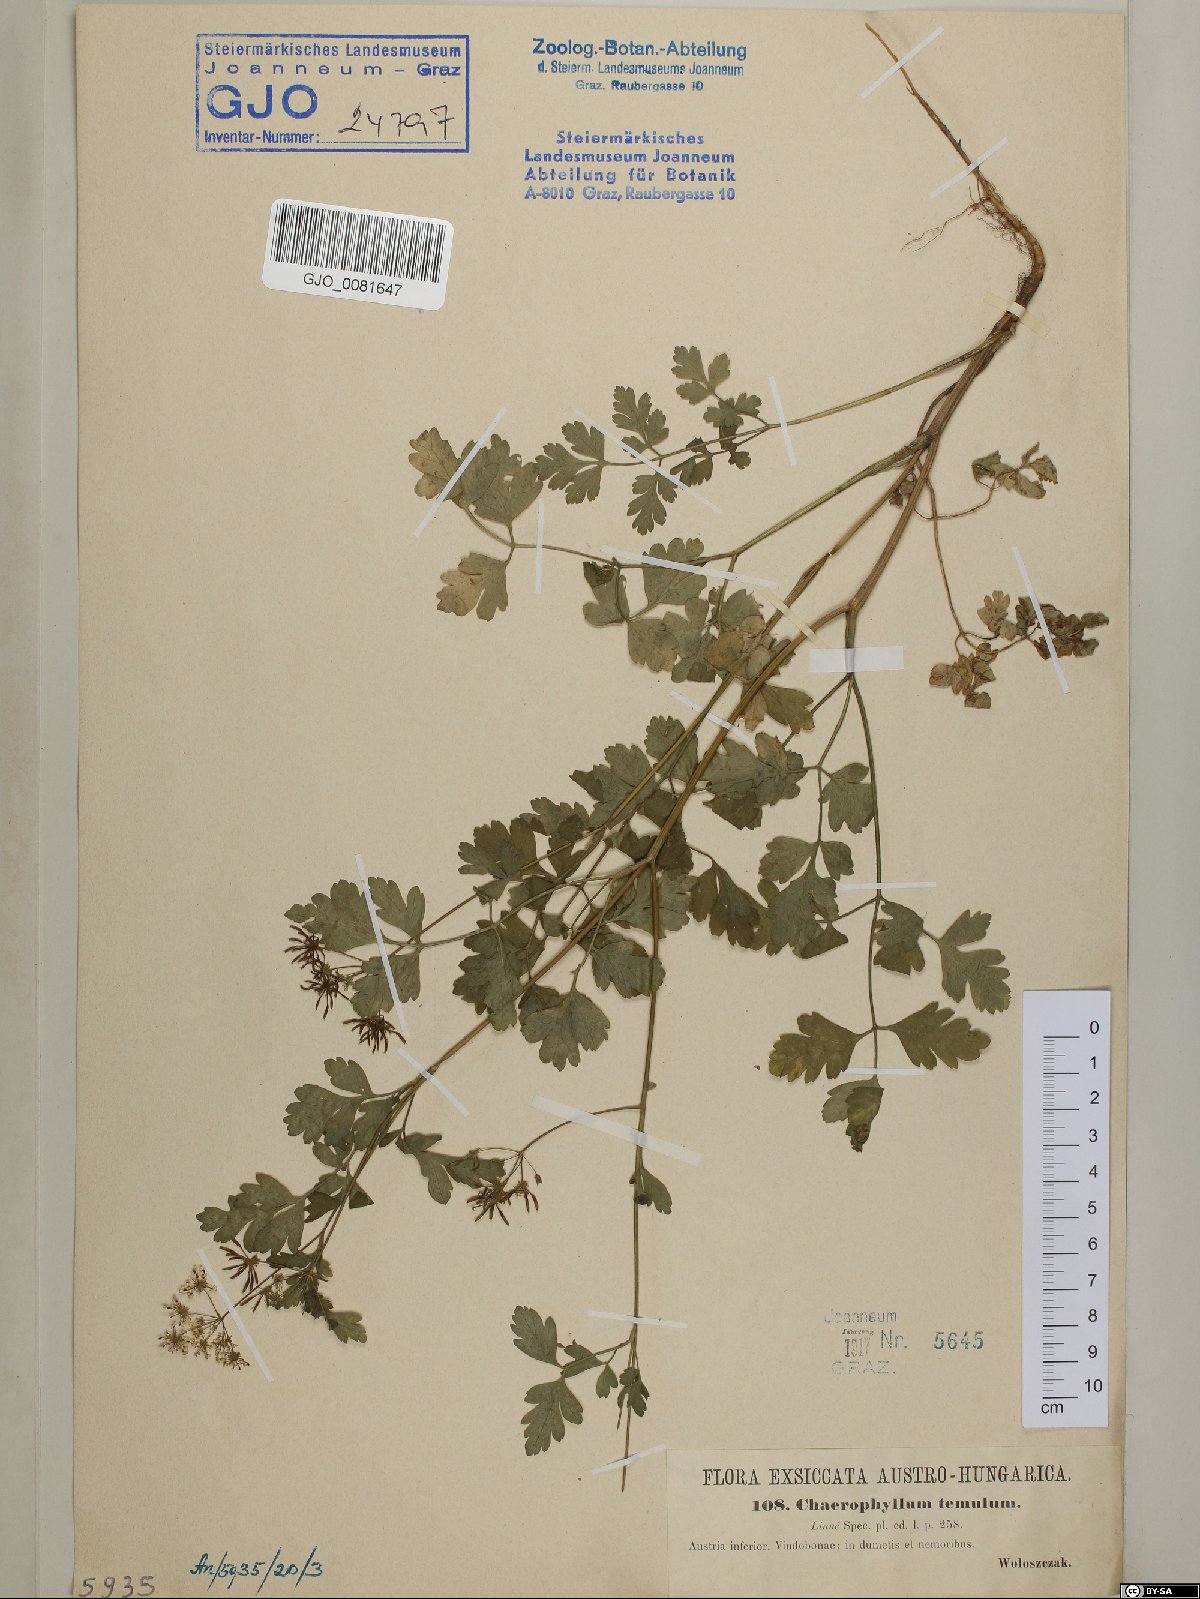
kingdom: Plantae
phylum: Tracheophyta
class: Magnoliopsida
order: Apiales
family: Apiaceae
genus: Chaerophyllum
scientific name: Chaerophyllum temulum
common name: Rough chervil
